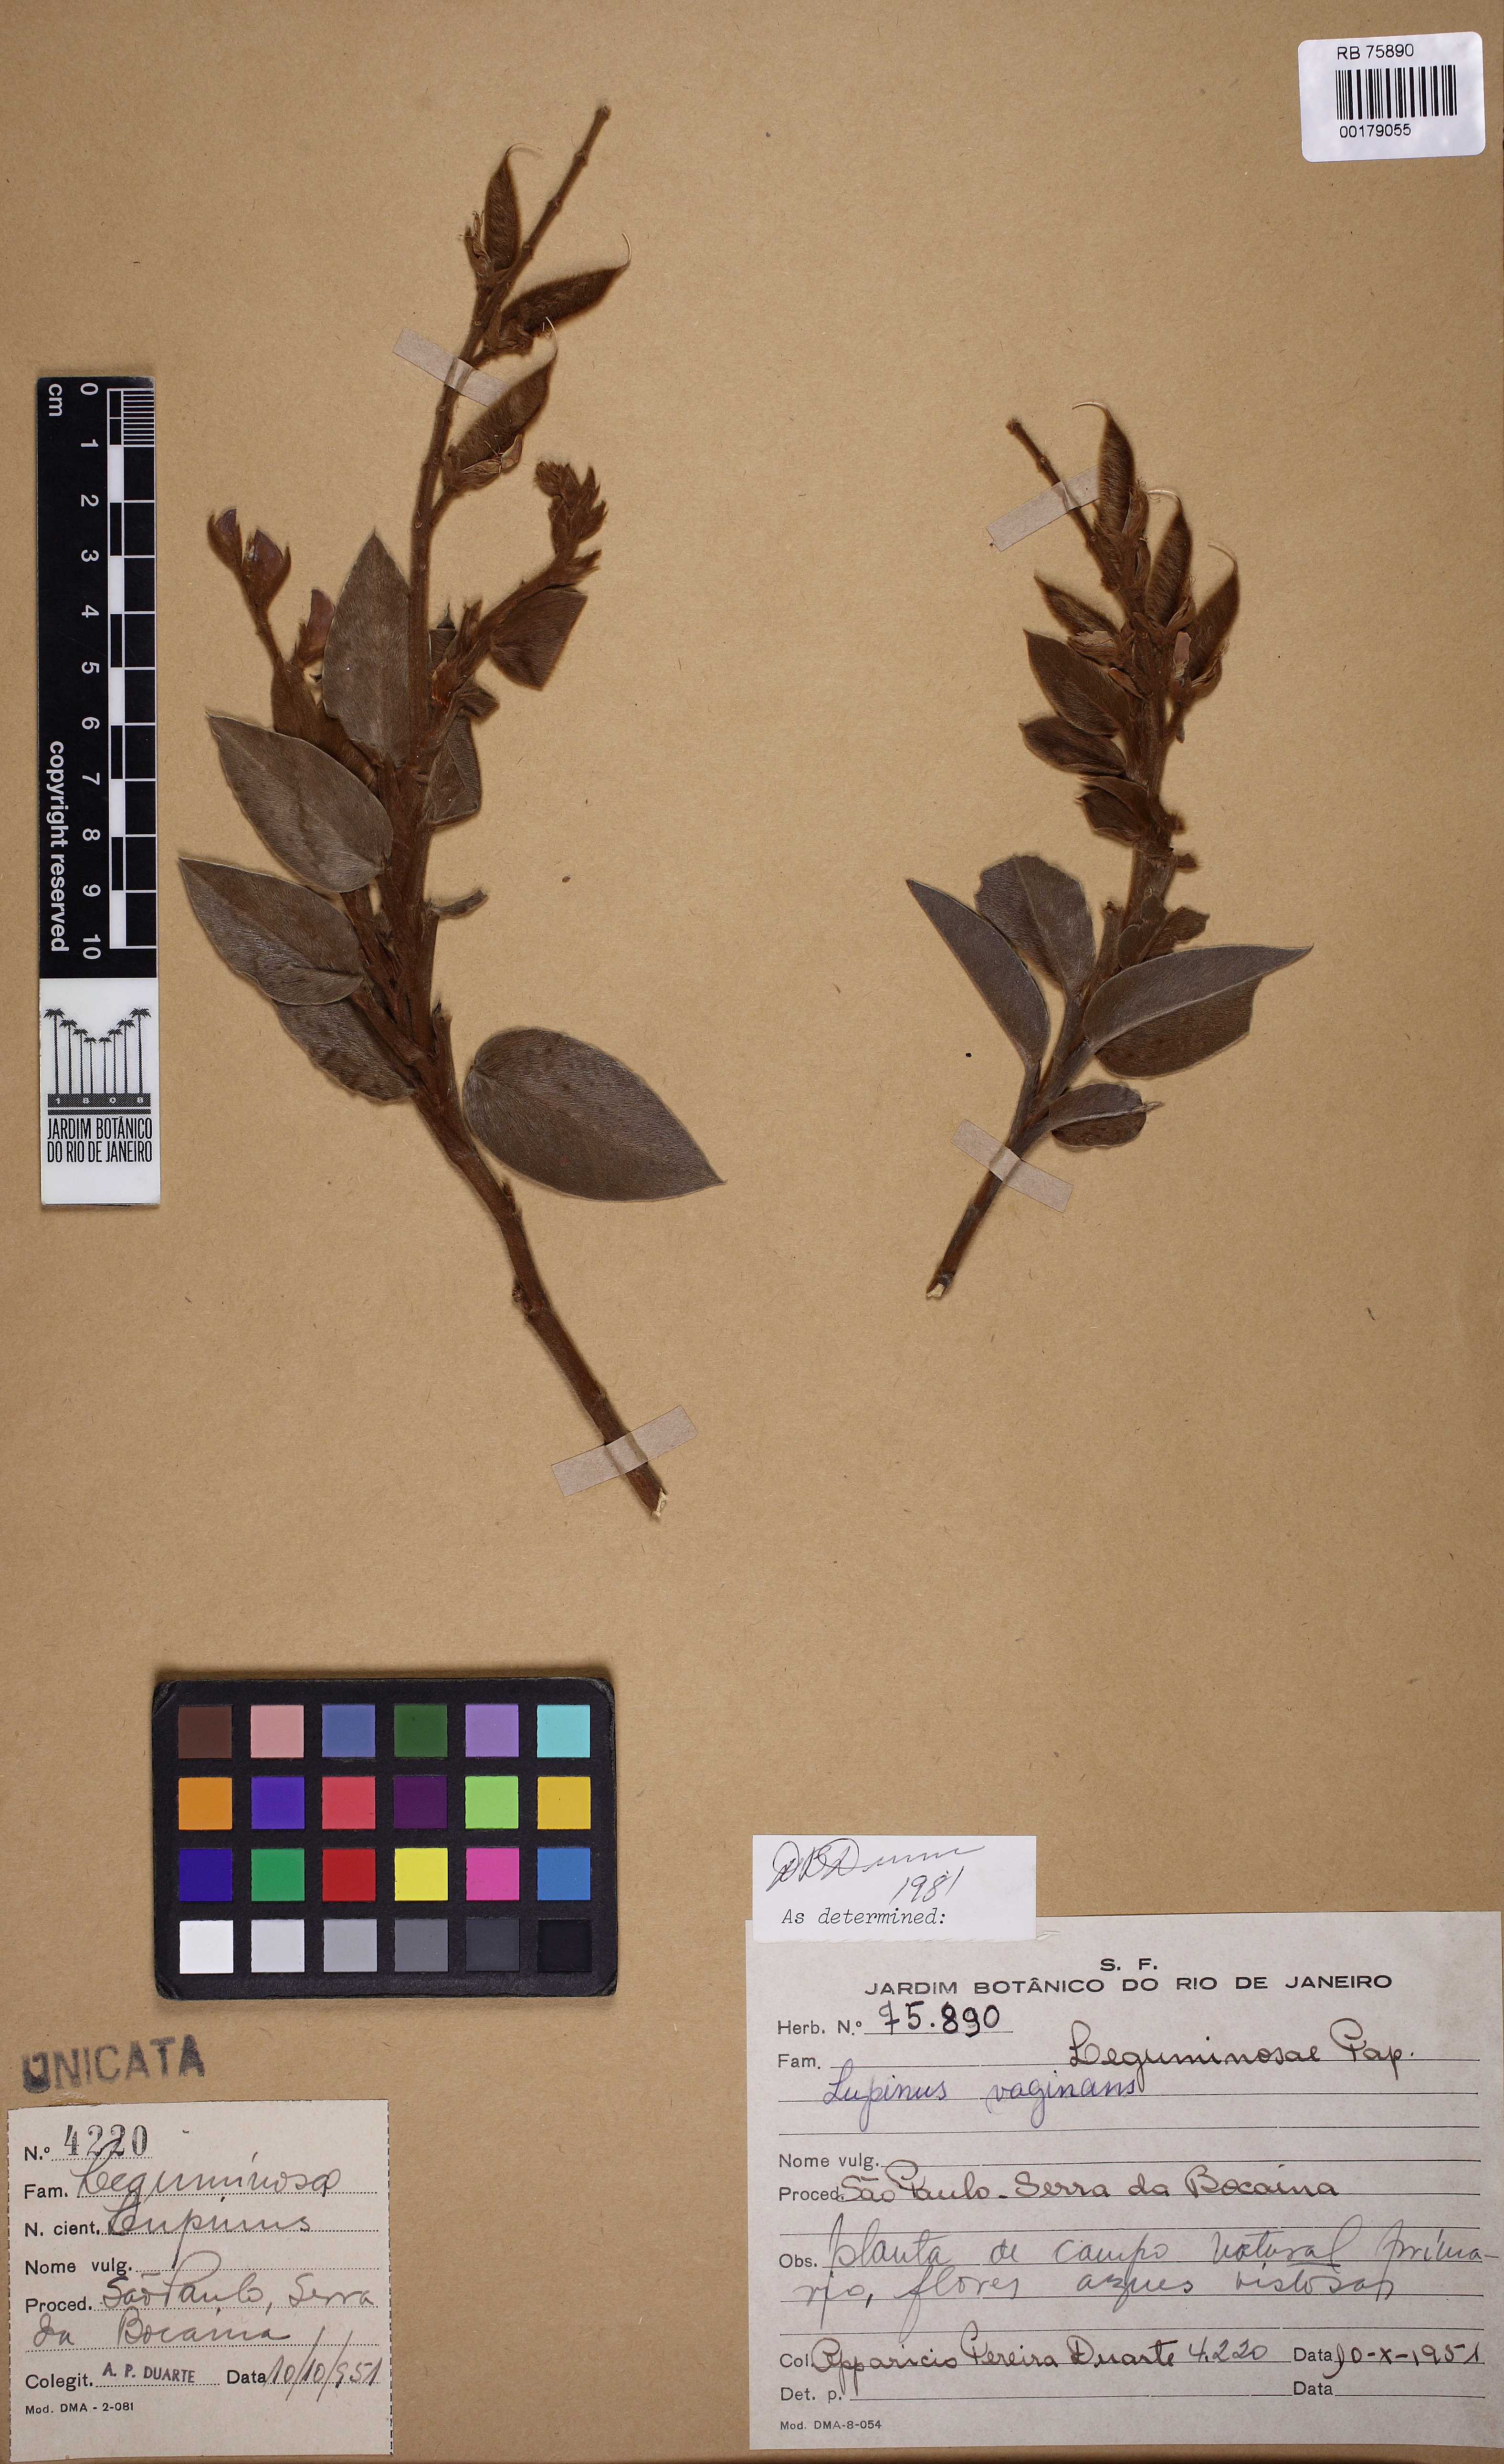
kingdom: Plantae
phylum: Tracheophyta
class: Magnoliopsida
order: Fabales
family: Fabaceae
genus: Lupinus
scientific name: Lupinus velutinus
